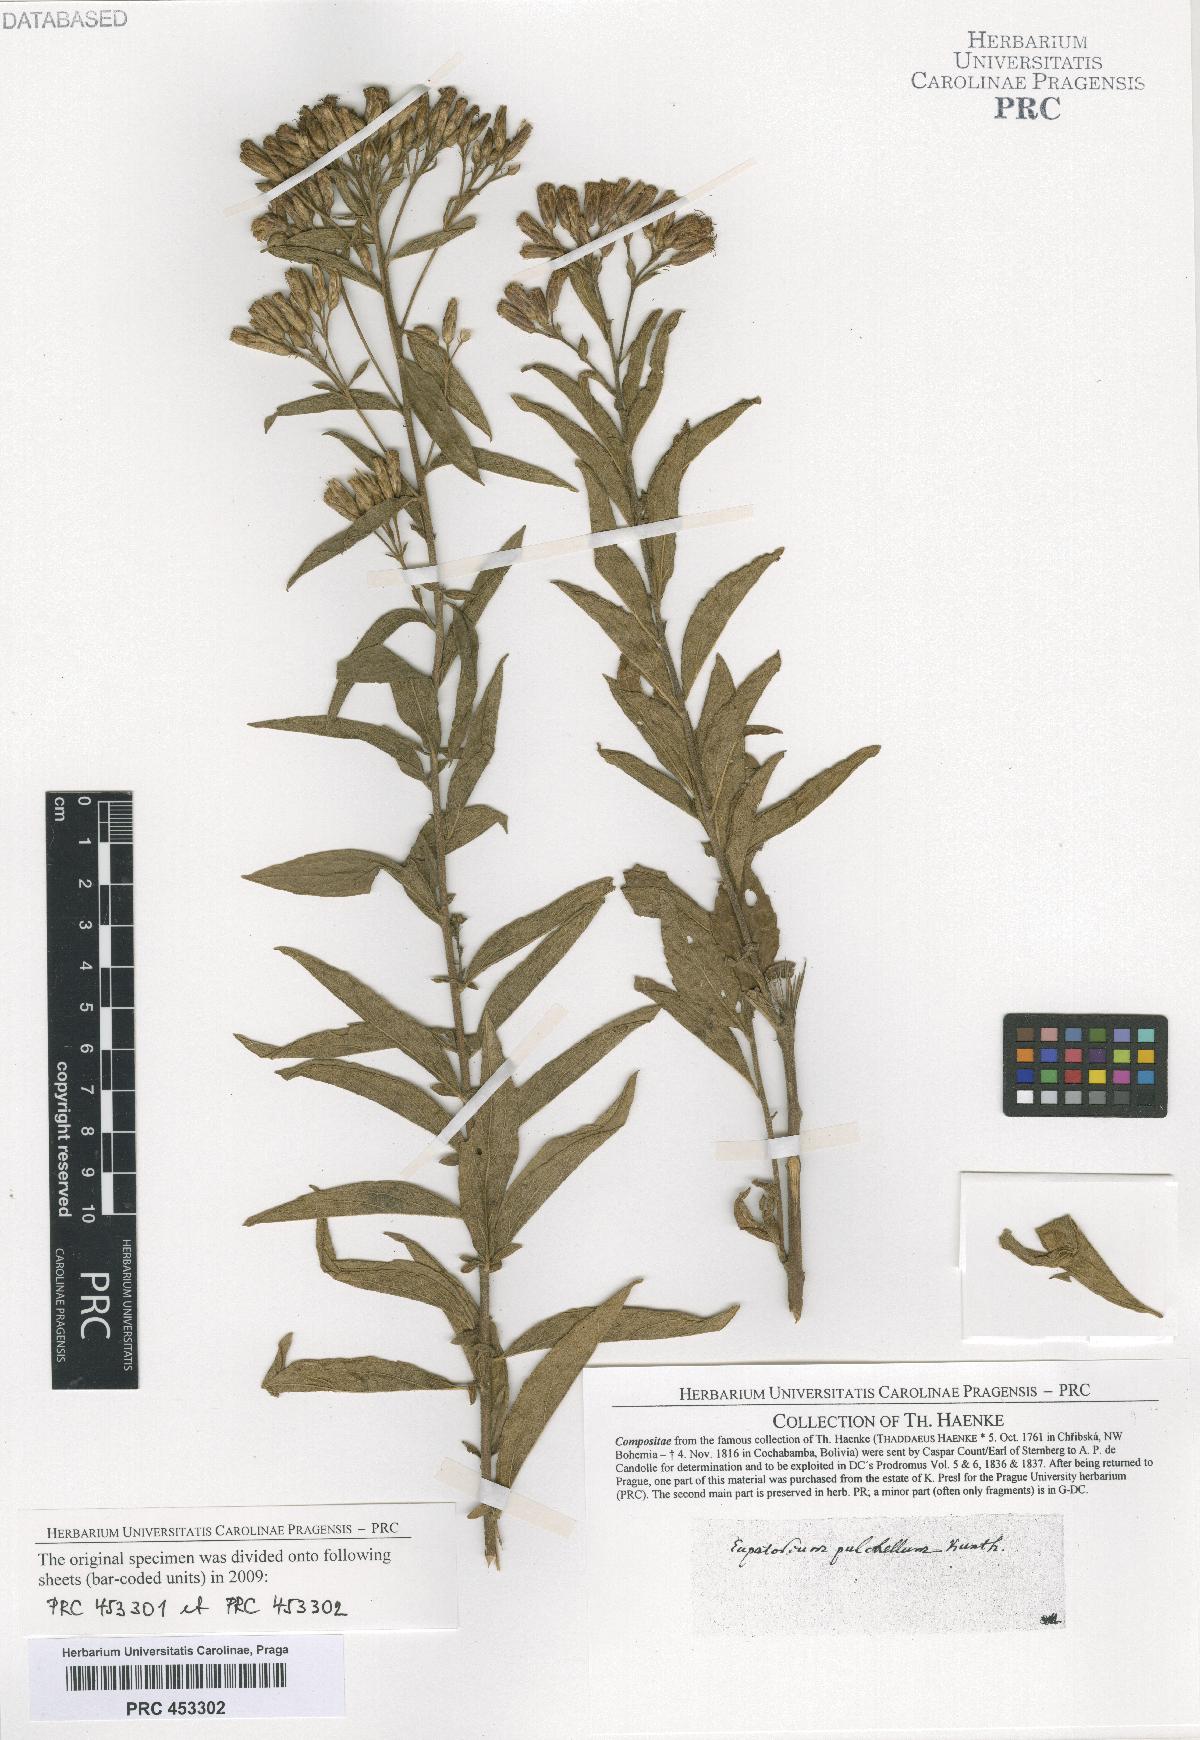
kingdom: Plantae
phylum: Tracheophyta
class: Magnoliopsida
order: Asterales
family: Asteraceae
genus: Chromolaena
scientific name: Chromolaena pulchella
